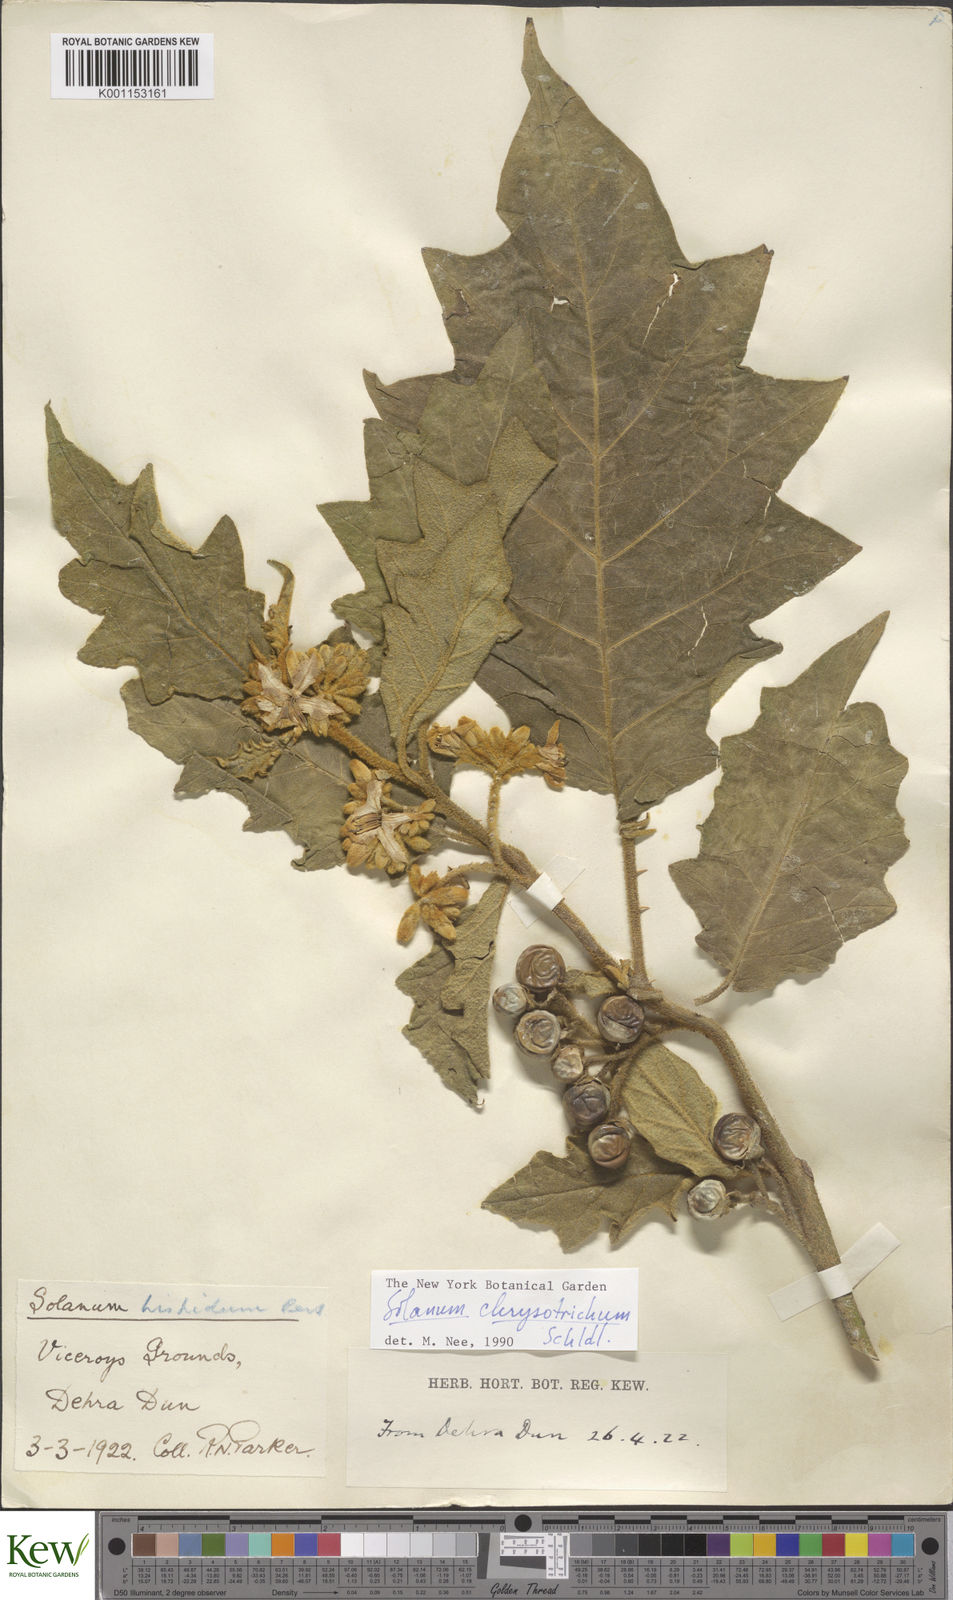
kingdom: Plantae
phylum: Tracheophyta
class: Magnoliopsida
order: Solanales
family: Solanaceae
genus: Solanum
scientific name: Solanum asperolanatum
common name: Devil's-fig
